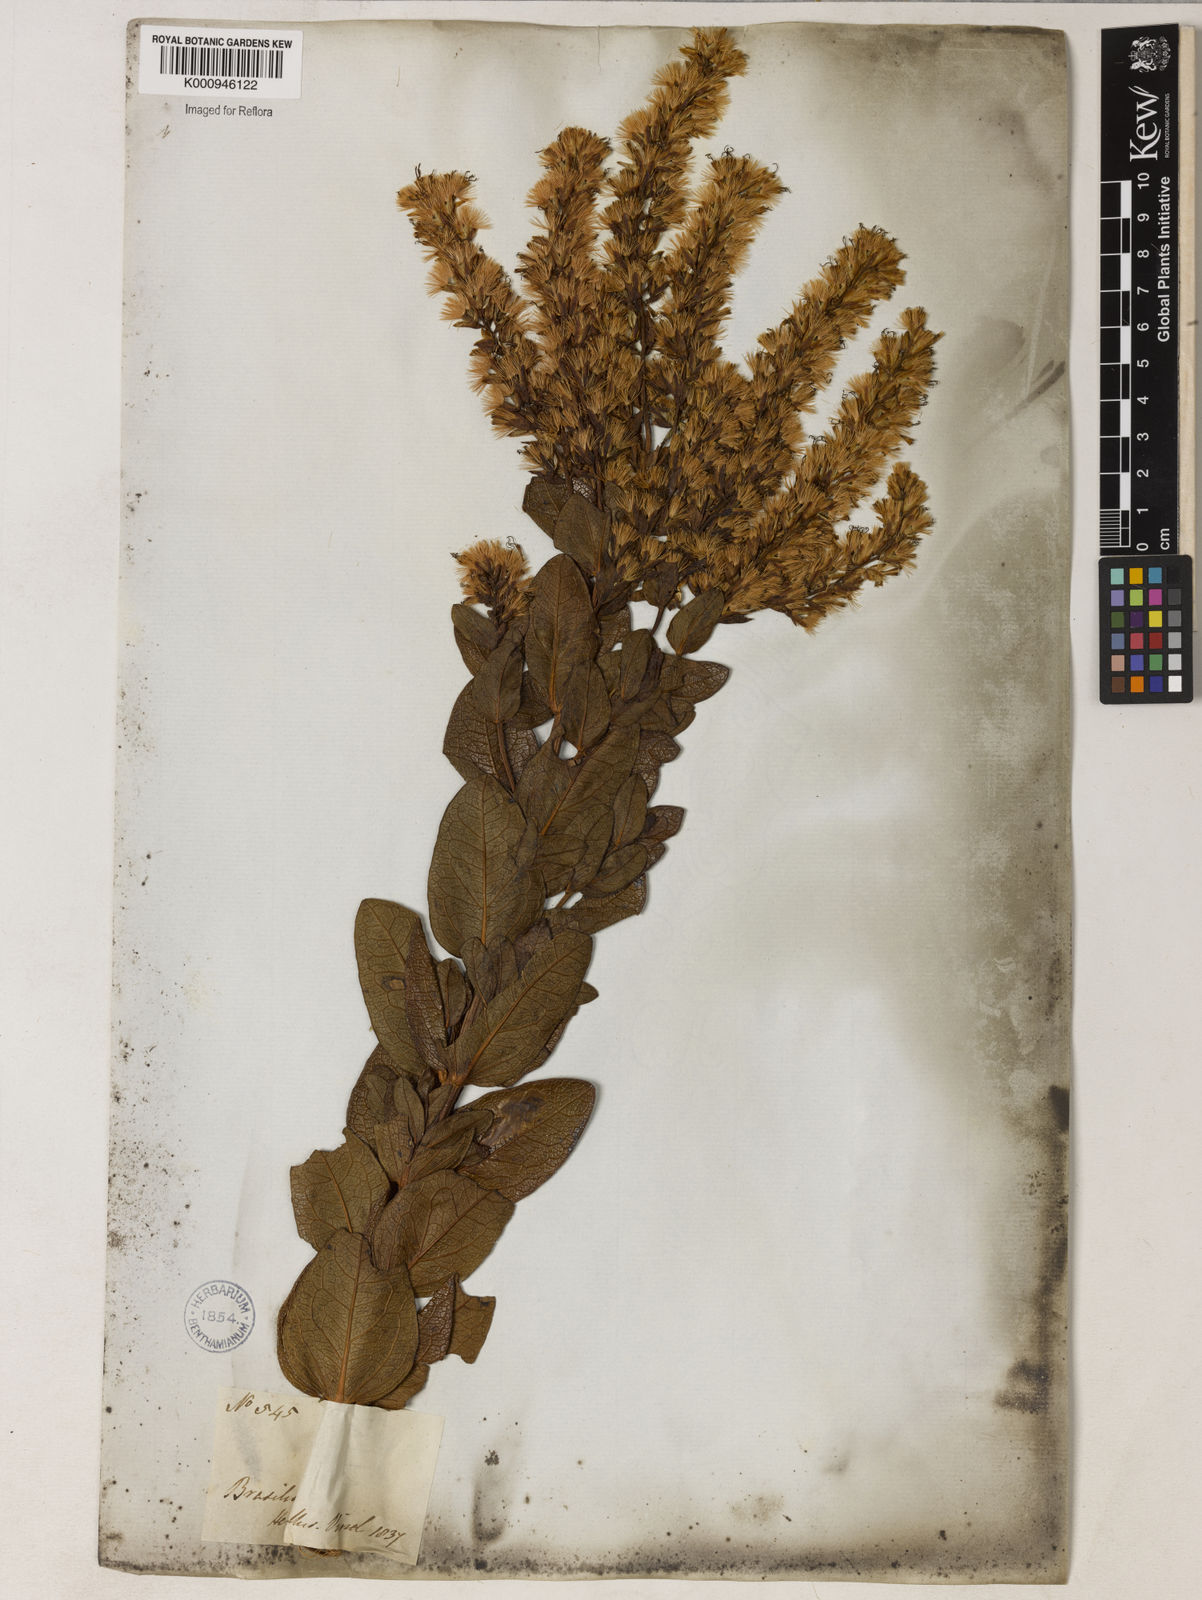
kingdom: Plantae
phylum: Tracheophyta
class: Magnoliopsida
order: Asterales
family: Asteraceae
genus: Mikania
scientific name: Mikania oblongifolia
